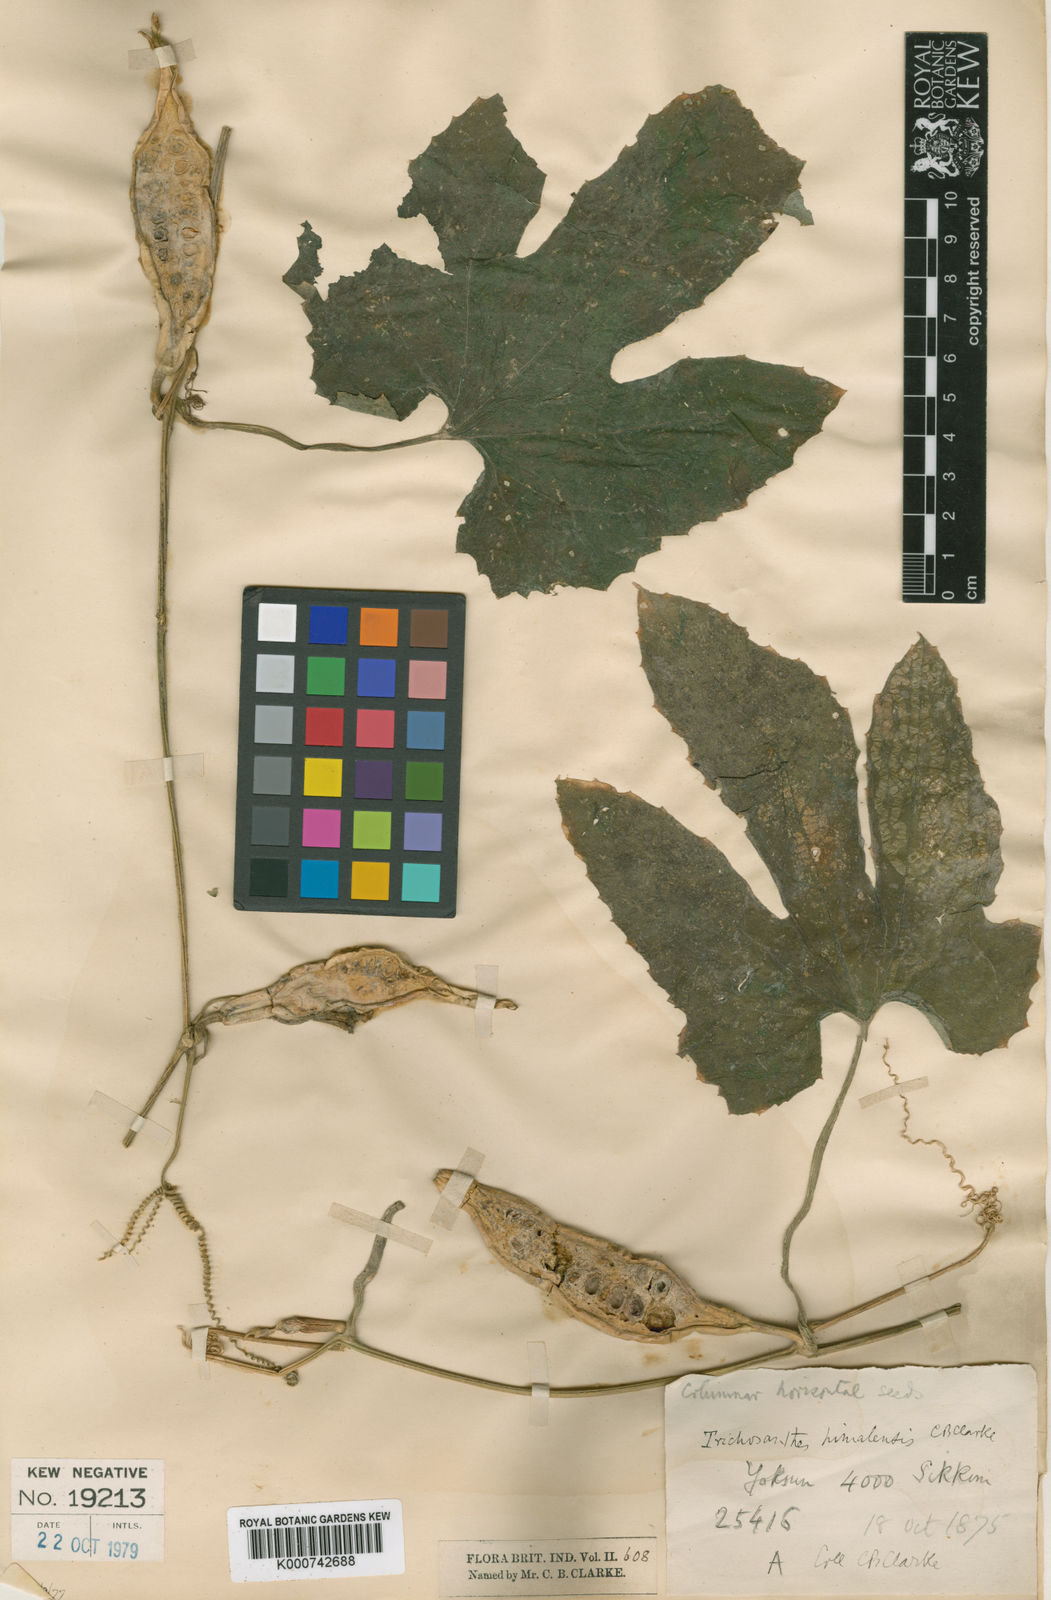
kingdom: Plantae
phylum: Tracheophyta
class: Magnoliopsida
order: Cucurbitales
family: Cucurbitaceae
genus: Trichosanthes
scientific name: Trichosanthes ovigera
